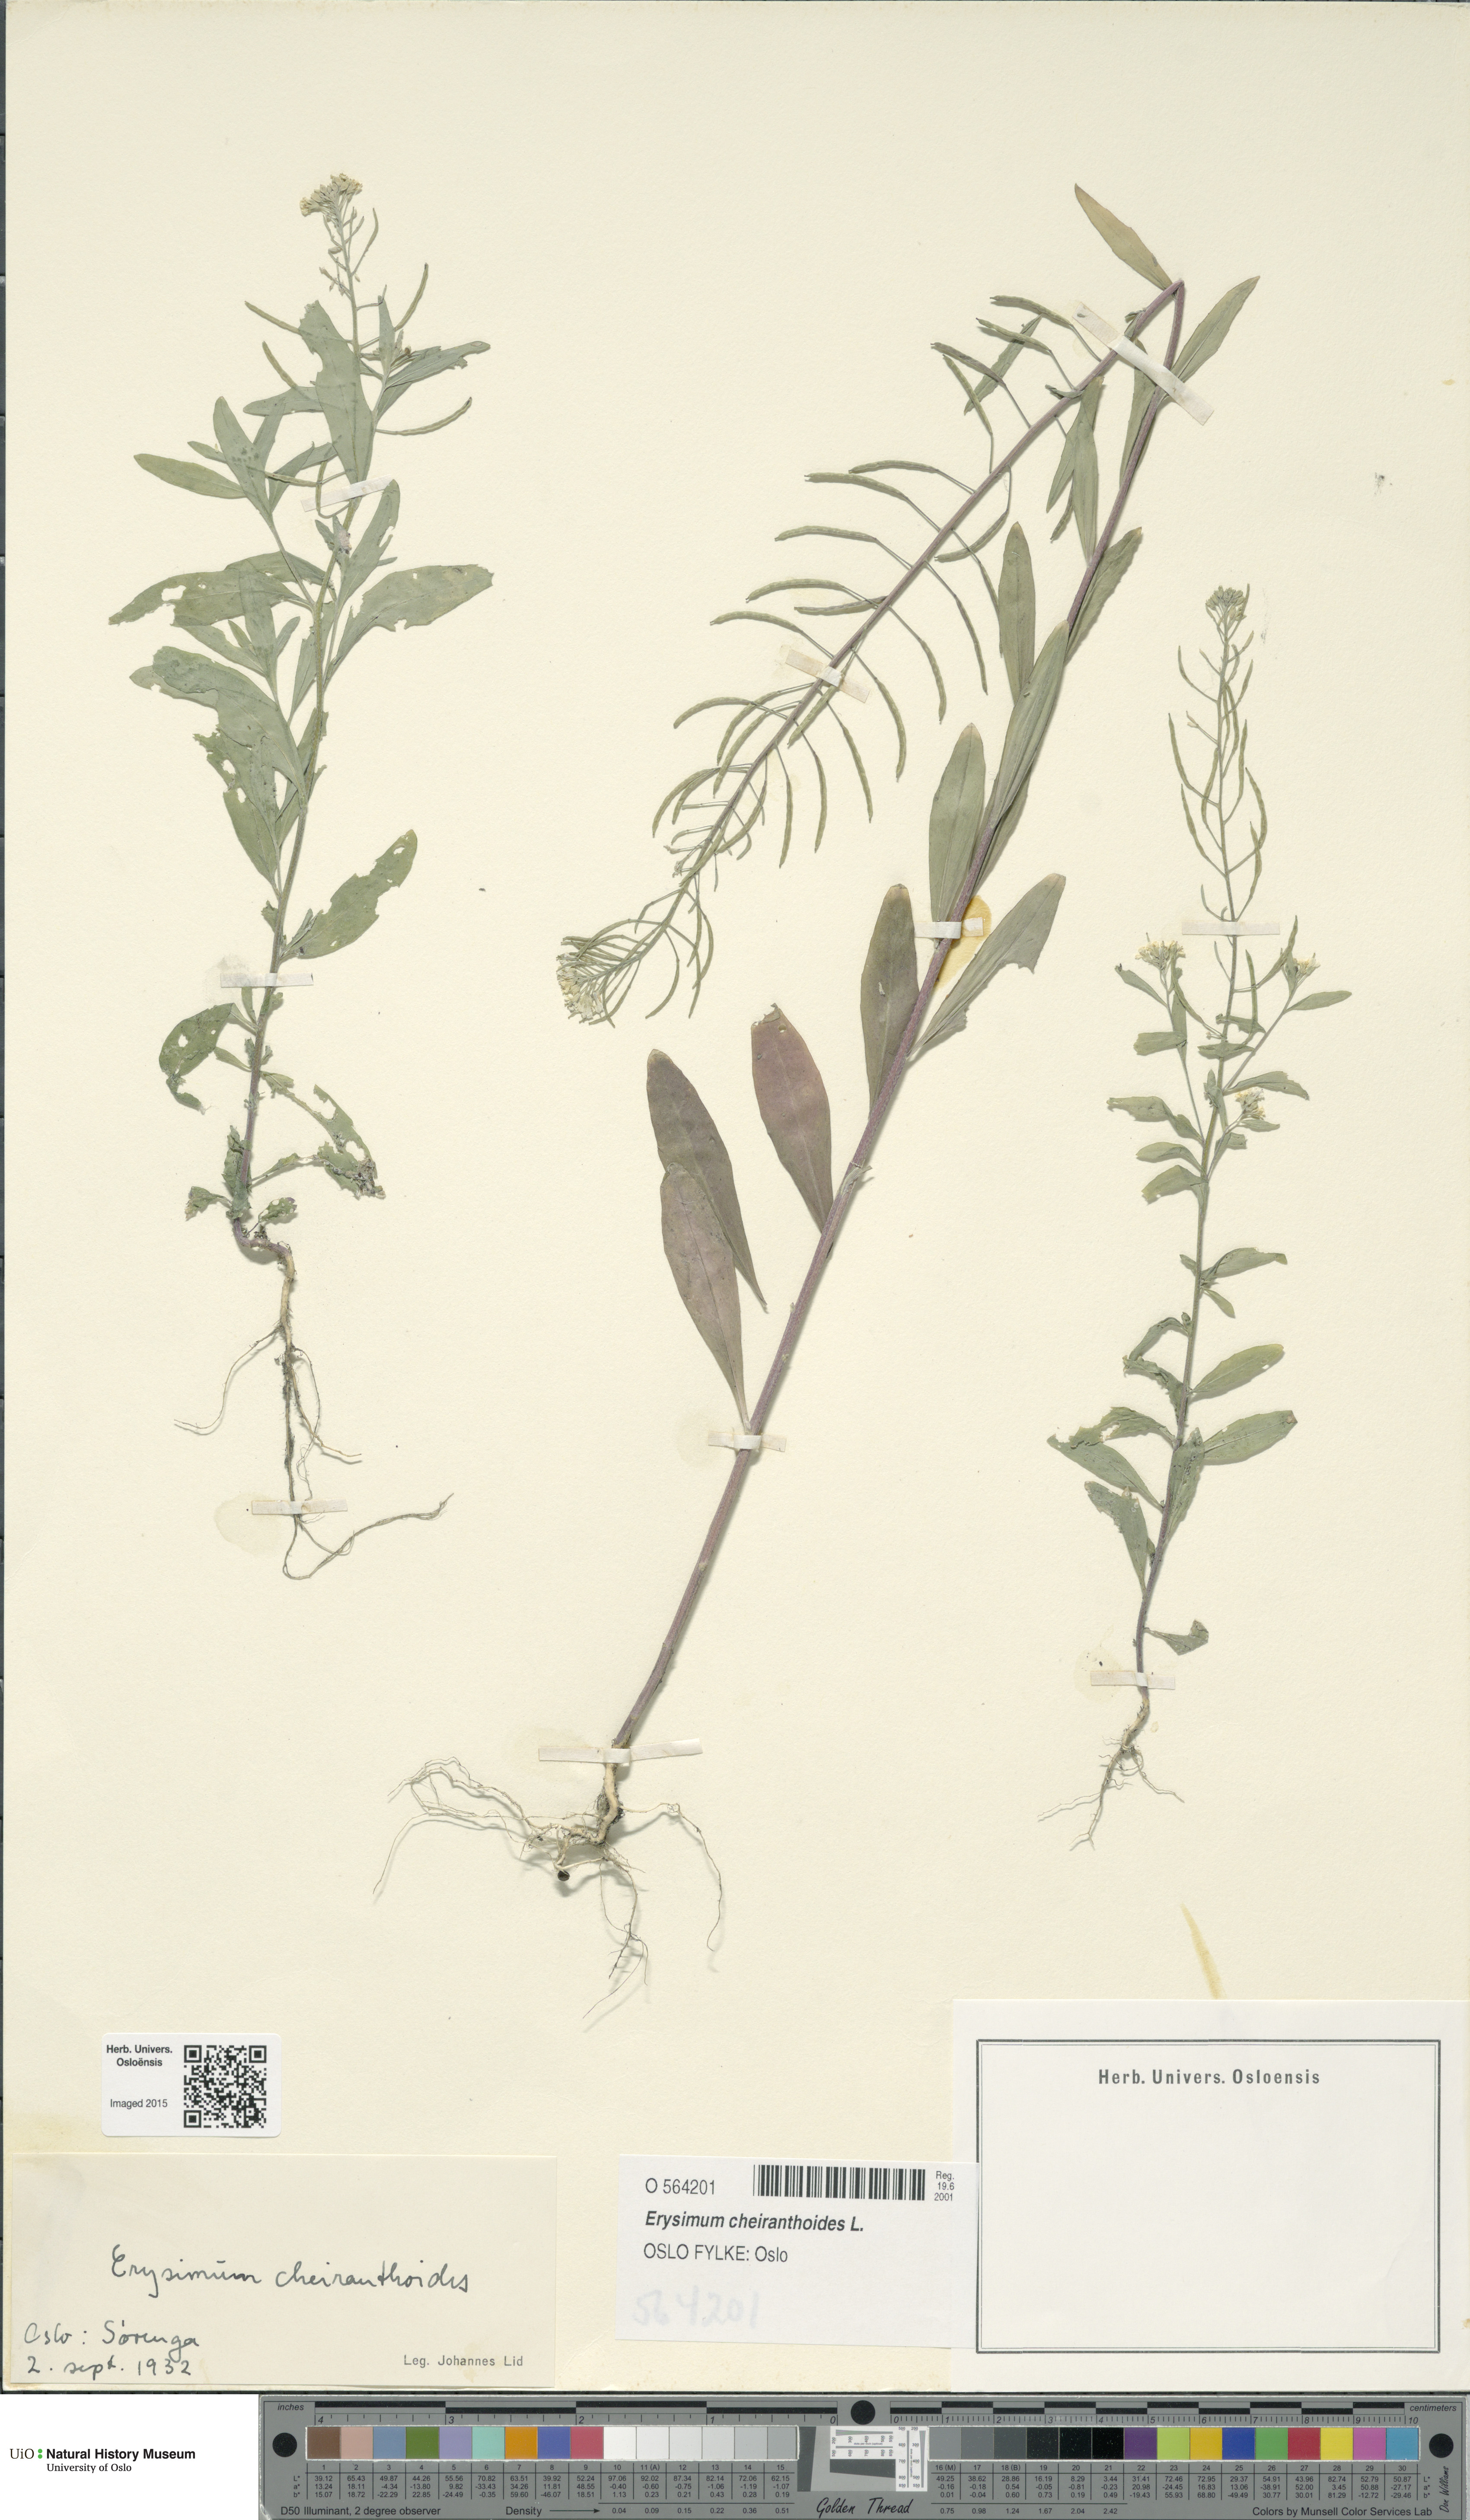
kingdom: Plantae
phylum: Tracheophyta
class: Magnoliopsida
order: Brassicales
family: Brassicaceae
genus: Erysimum
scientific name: Erysimum cheiranthoides
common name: Treacle mustard
